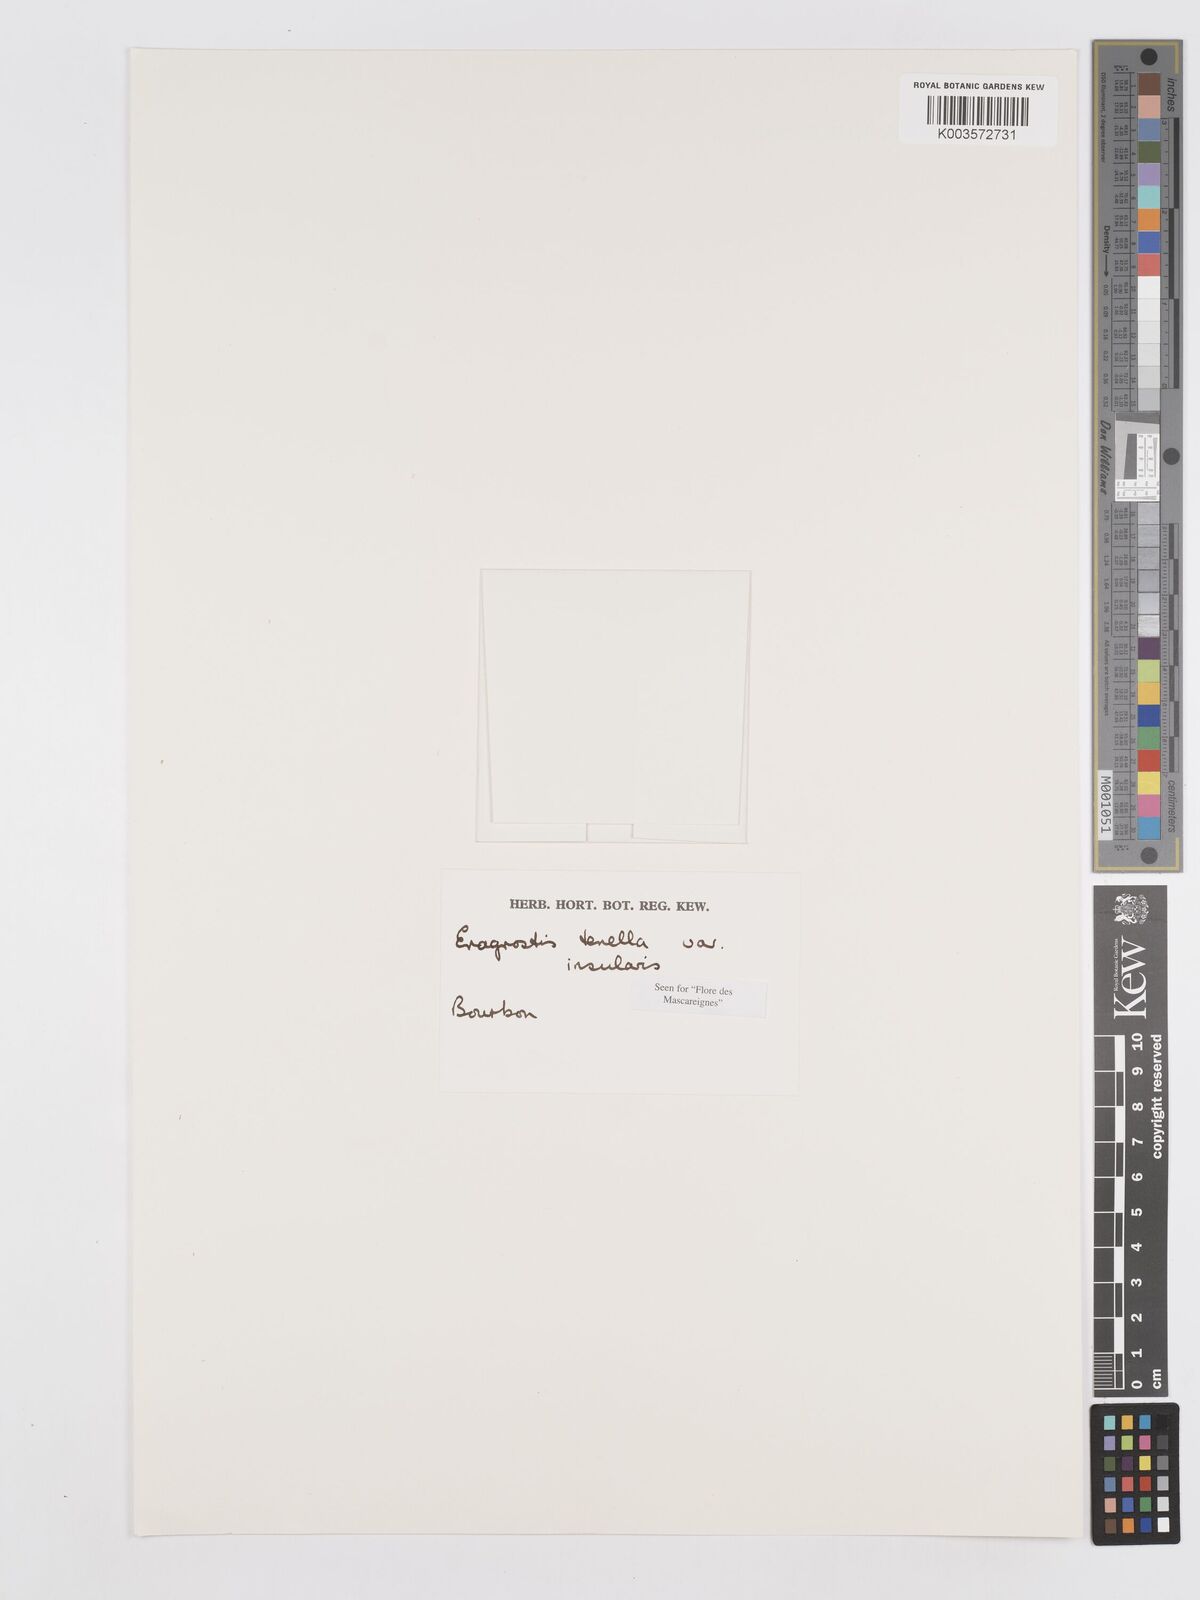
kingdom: Plantae
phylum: Tracheophyta
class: Liliopsida
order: Poales
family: Poaceae
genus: Eragrostis
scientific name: Eragrostis tenella
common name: Japanese lovegrass
